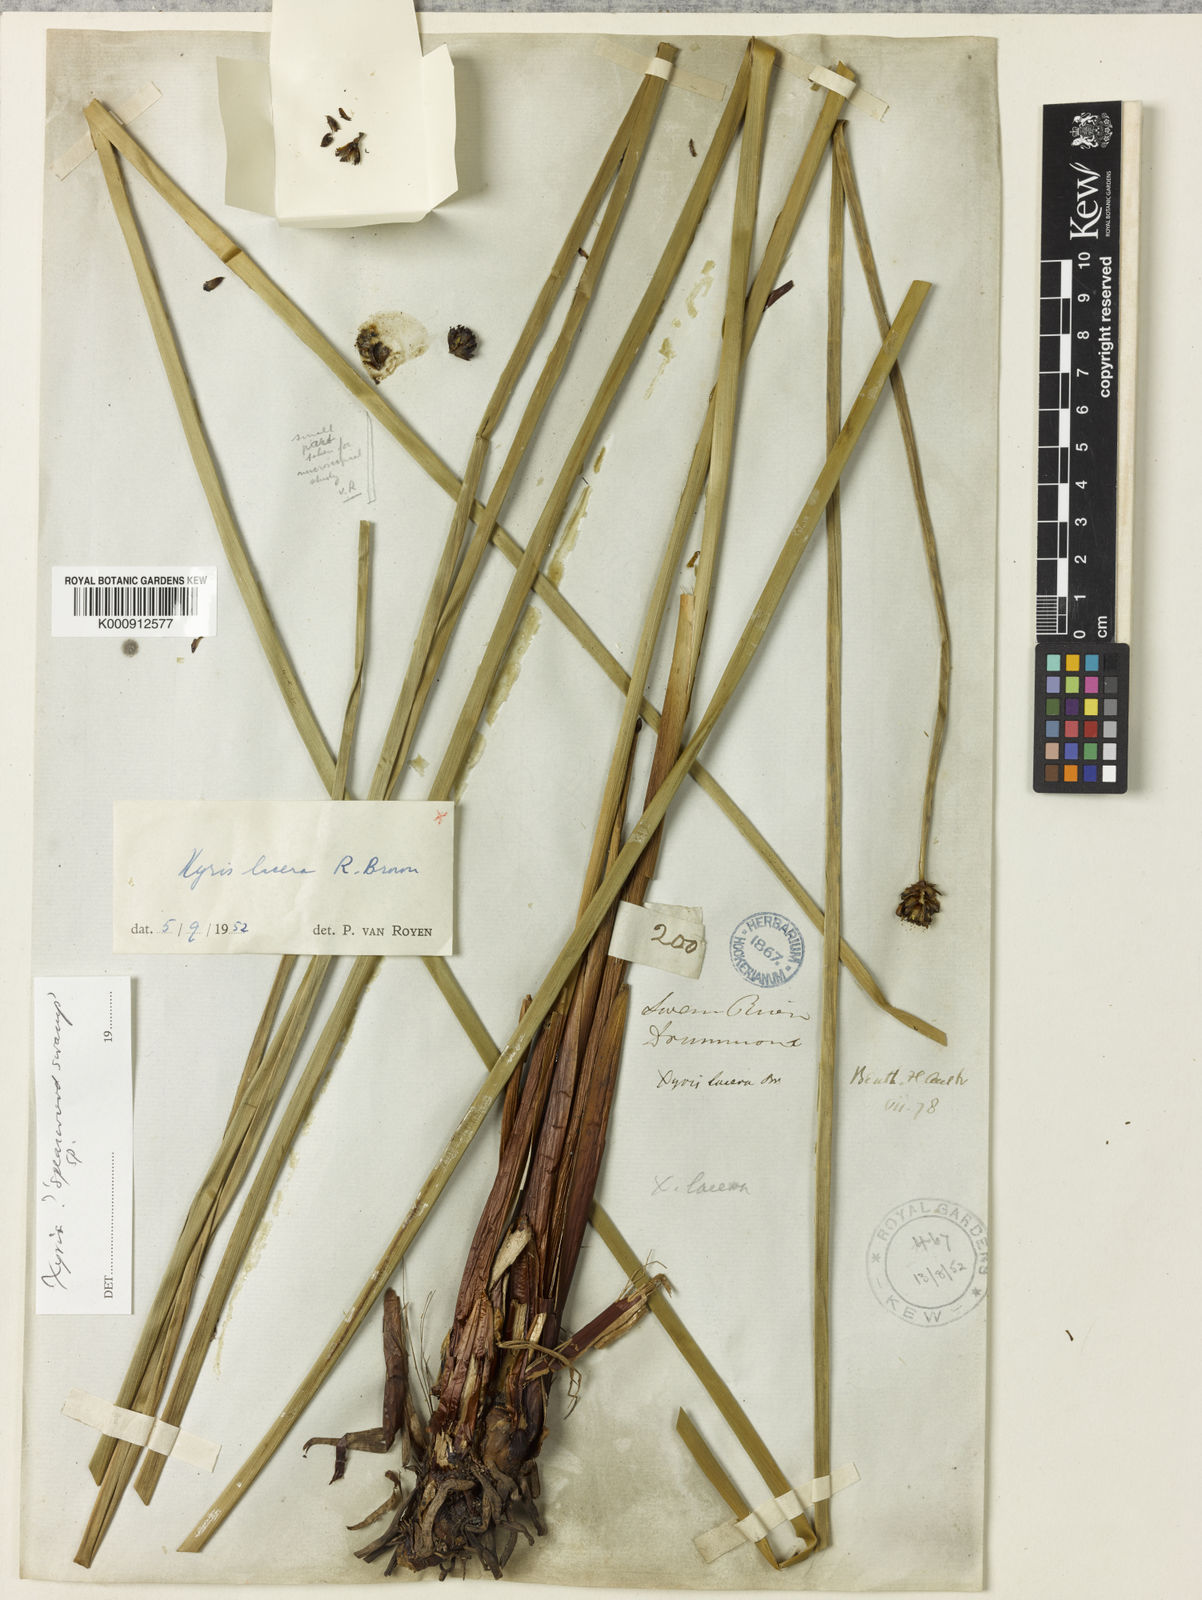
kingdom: Plantae
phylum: Tracheophyta
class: Liliopsida
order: Poales
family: Xyridaceae
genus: Xyris
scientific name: Xyris lacera
